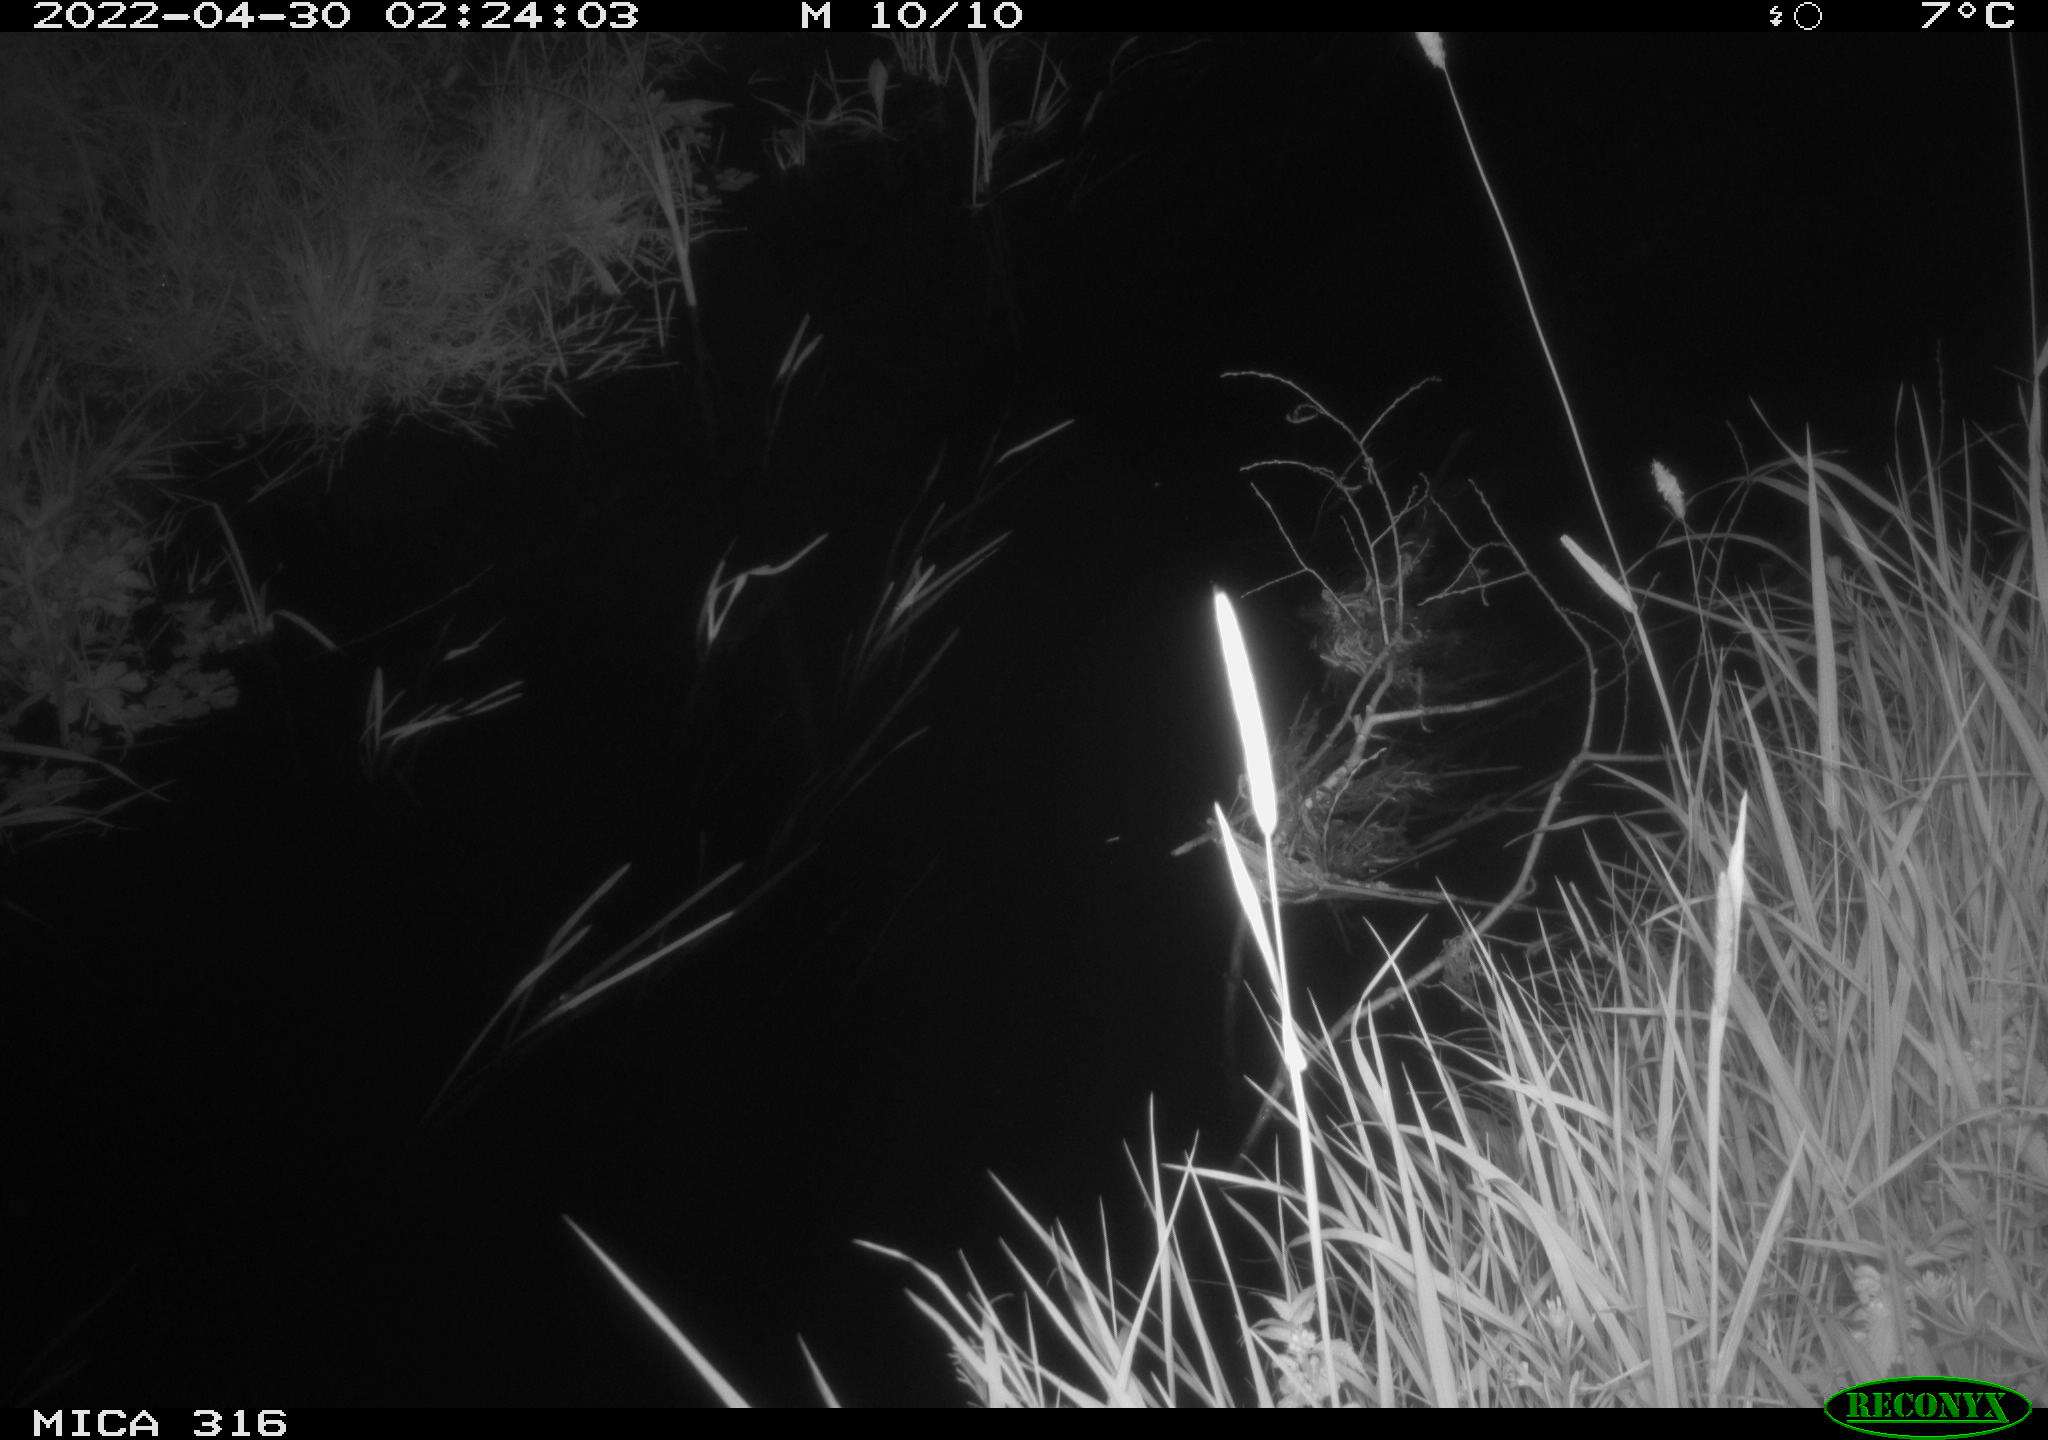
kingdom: Animalia
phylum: Chordata
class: Aves
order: Anseriformes
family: Anatidae
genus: Anas
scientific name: Anas platyrhynchos
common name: Mallard
